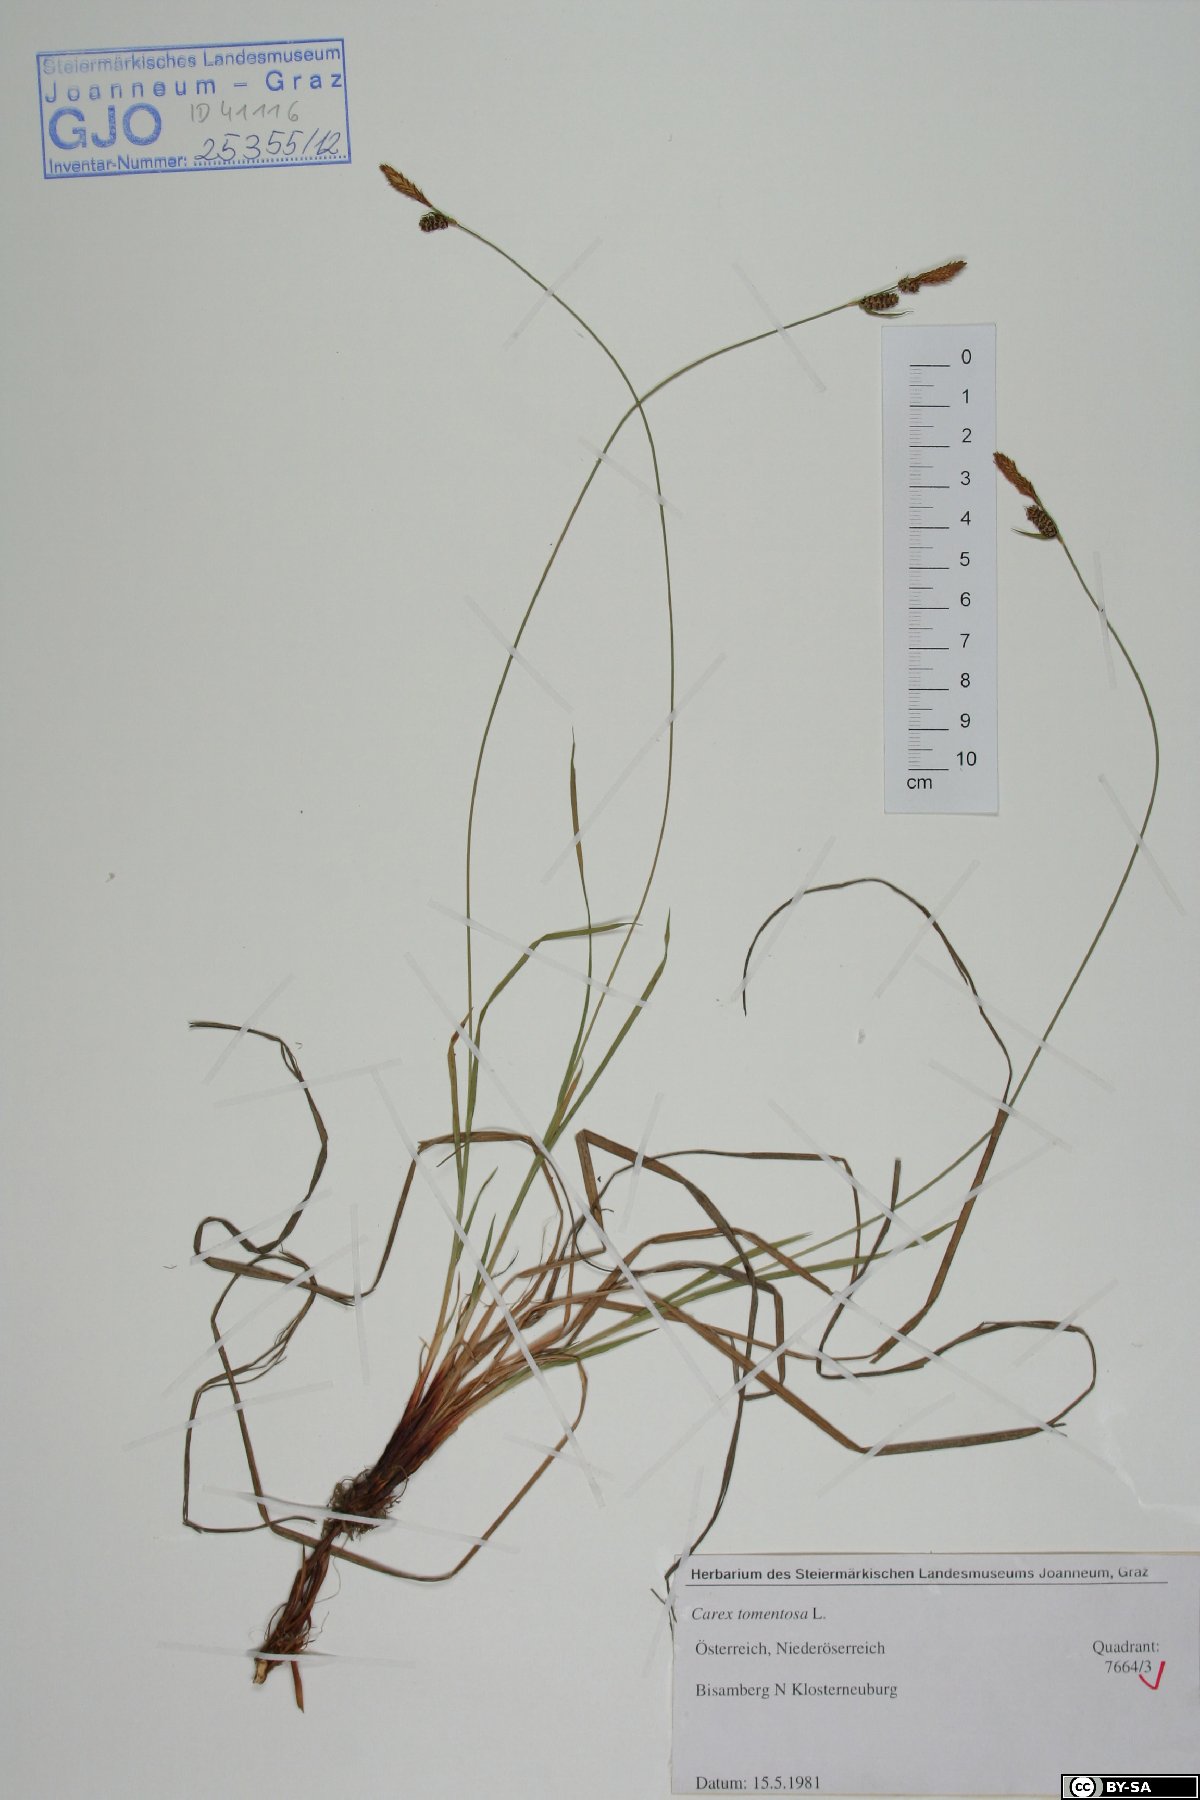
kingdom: Plantae
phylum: Tracheophyta
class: Liliopsida
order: Poales
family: Cyperaceae
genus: Carex
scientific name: Carex tomentosa
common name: Downy-fruited sedge
